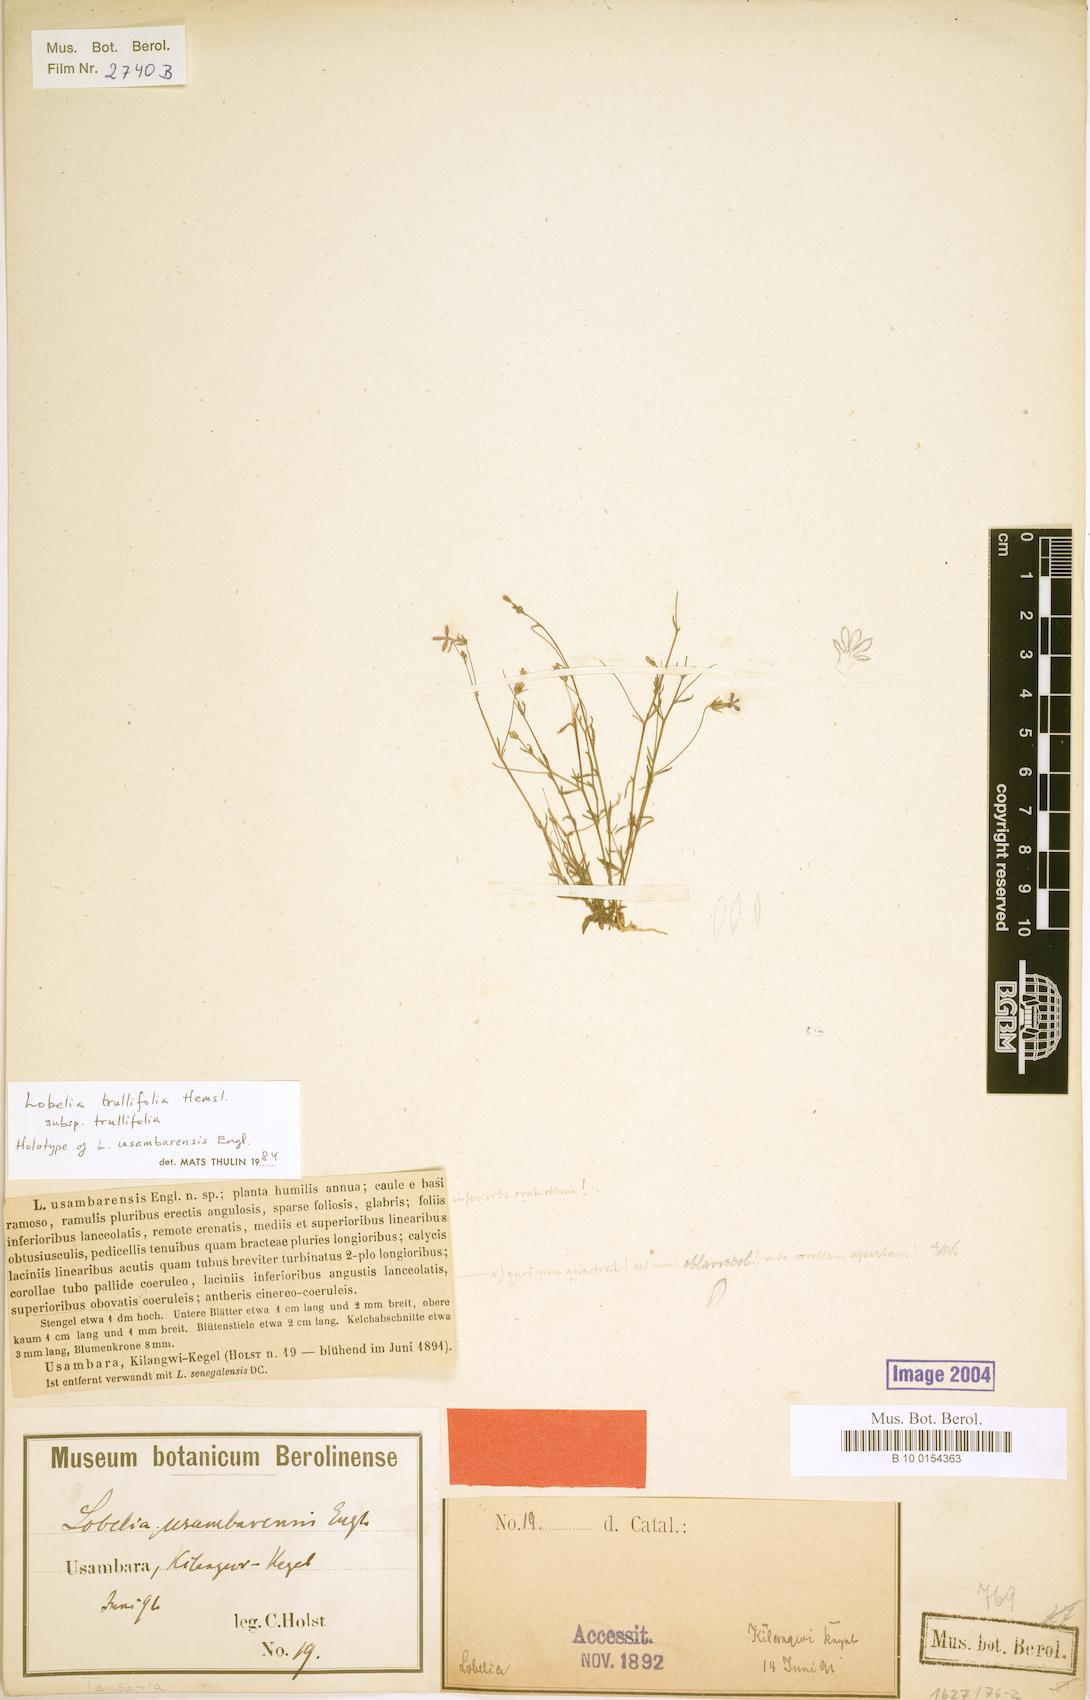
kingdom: Plantae
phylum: Tracheophyta
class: Magnoliopsida
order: Asterales
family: Campanulaceae
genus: Lobelia
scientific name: Lobelia trullifolia
